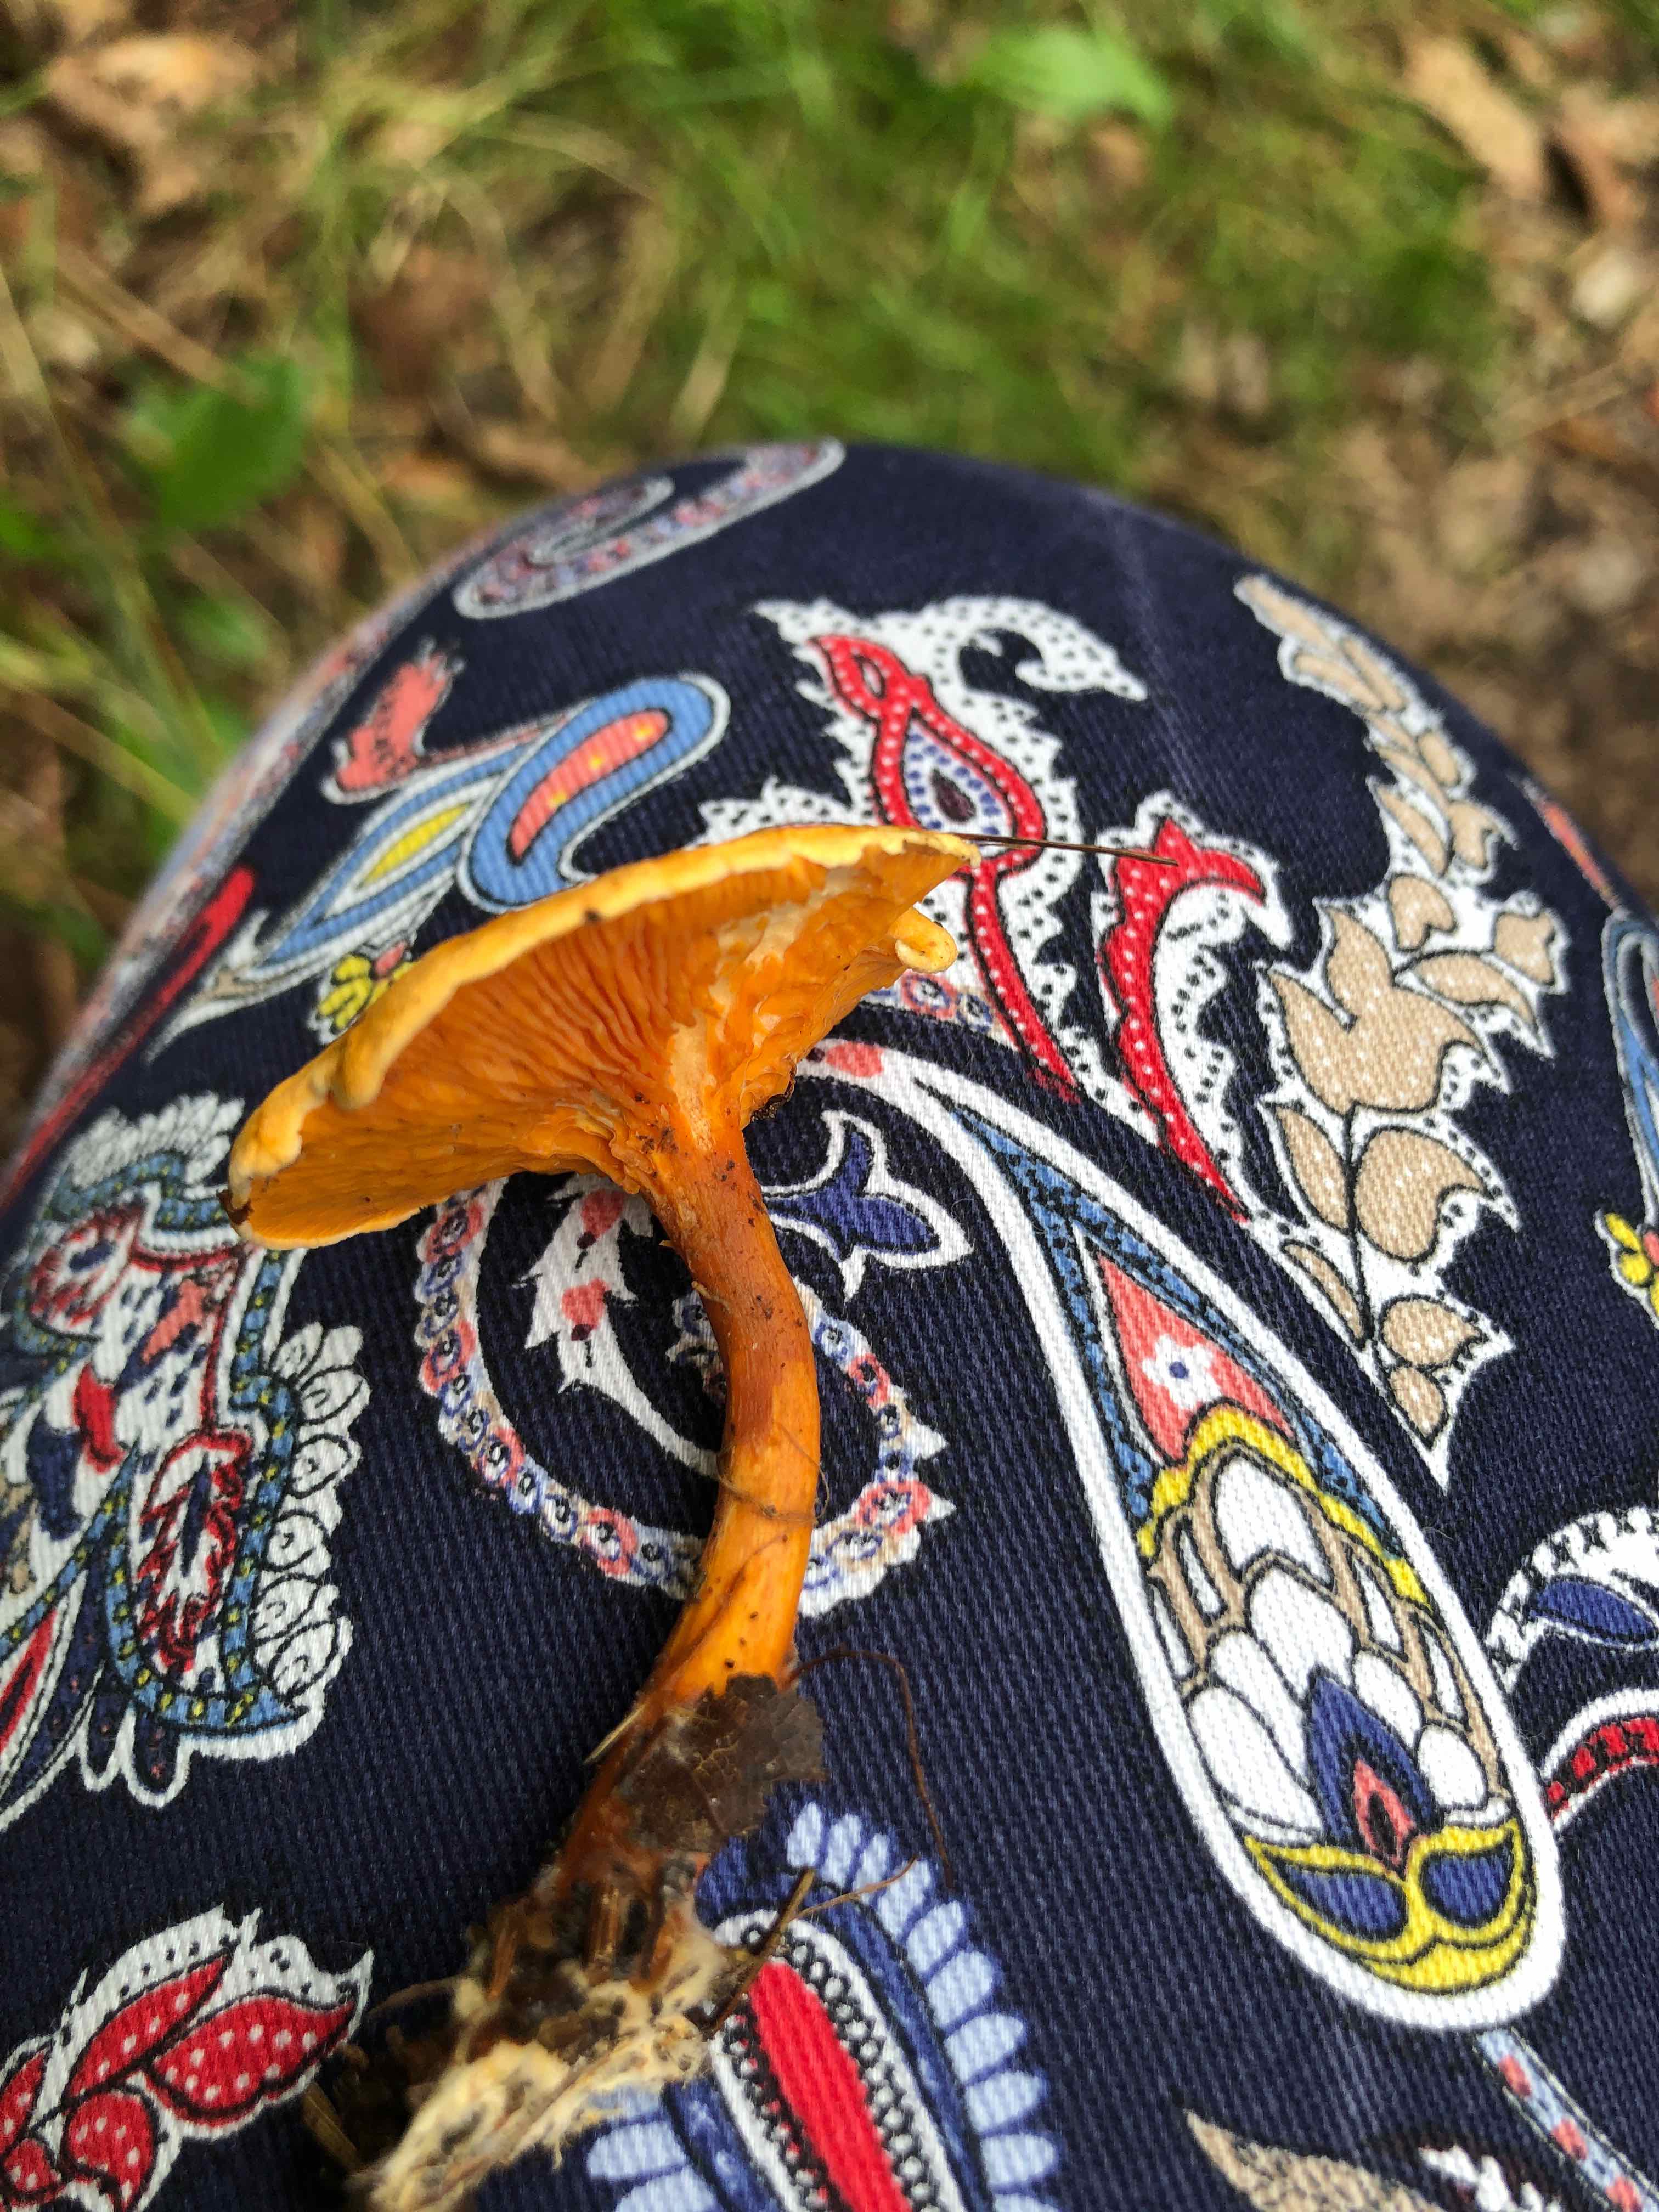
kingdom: Fungi
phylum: Basidiomycota
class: Agaricomycetes
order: Boletales
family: Hygrophoropsidaceae
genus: Hygrophoropsis
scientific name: Hygrophoropsis aurantiaca
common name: almindelig orangekantarel
